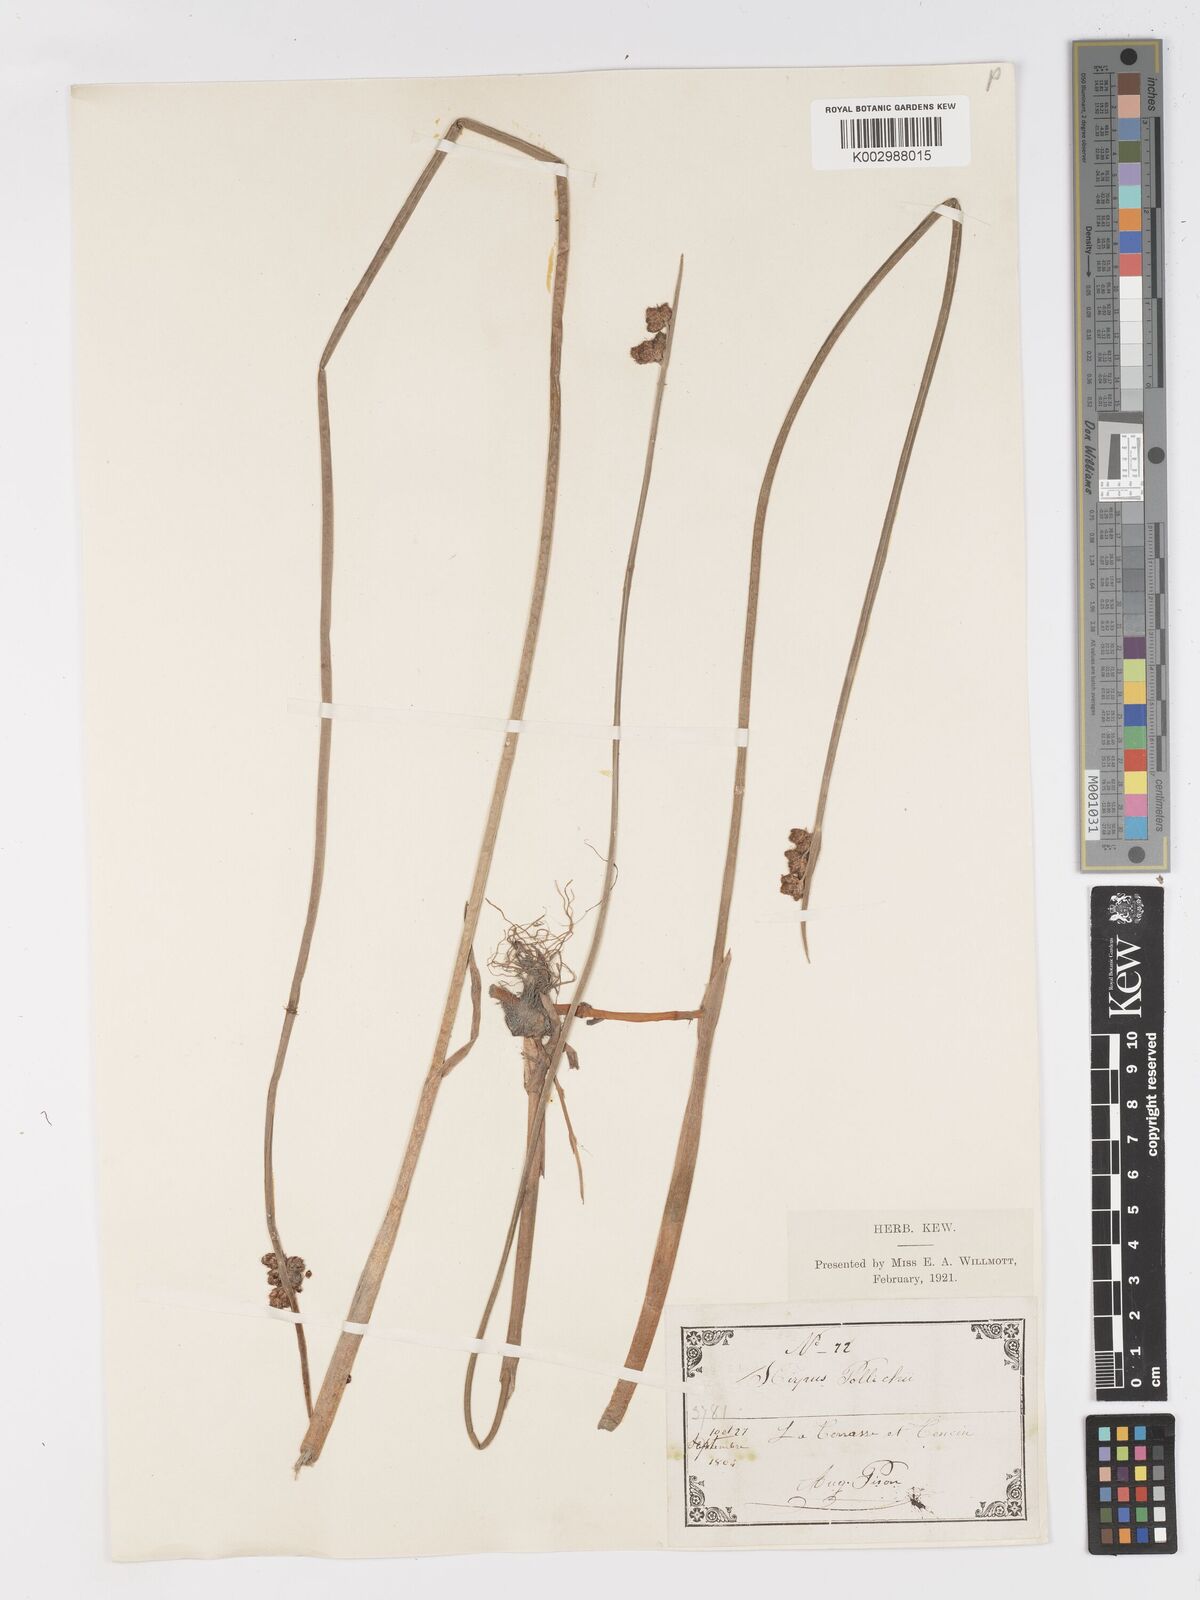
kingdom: Plantae
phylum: Tracheophyta
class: Liliopsida
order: Poales
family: Cyperaceae
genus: Schoenoplectus
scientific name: Schoenoplectus triqueter
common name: Triangular club-rush
